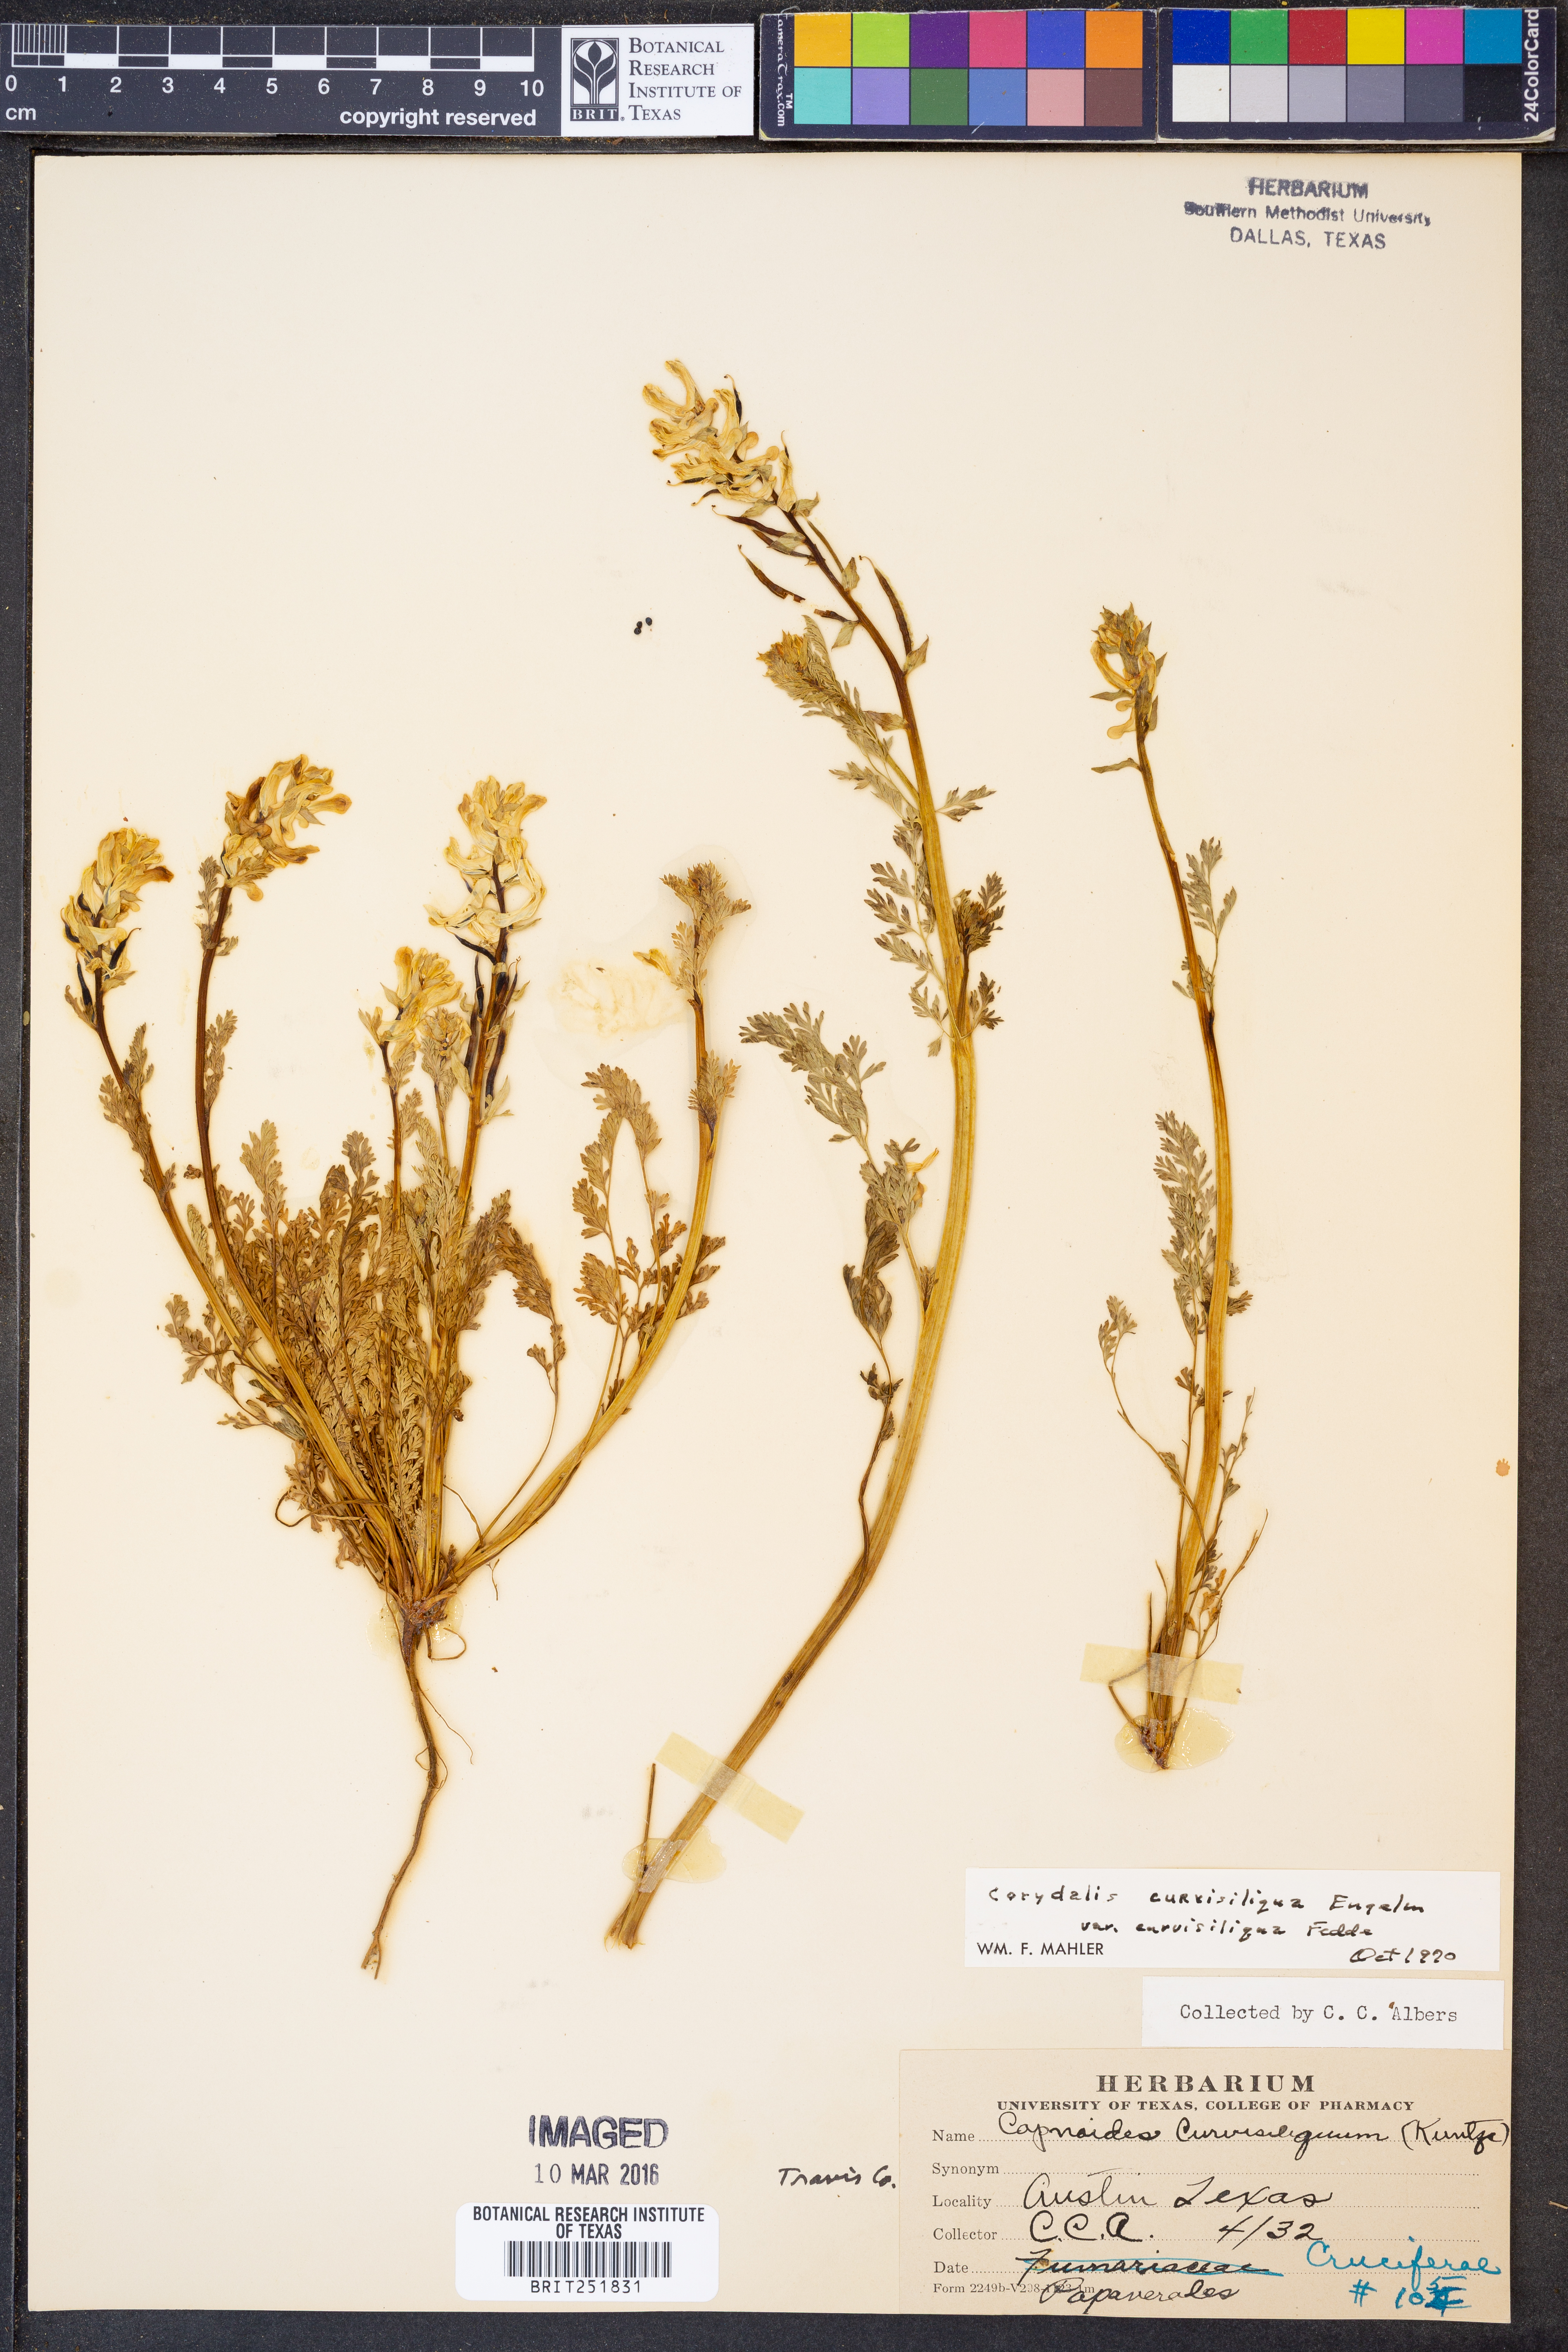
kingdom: Plantae
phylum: Tracheophyta
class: Magnoliopsida
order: Ranunculales
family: Papaveraceae
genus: Corydalis
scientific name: Corydalis curvisiliqua
